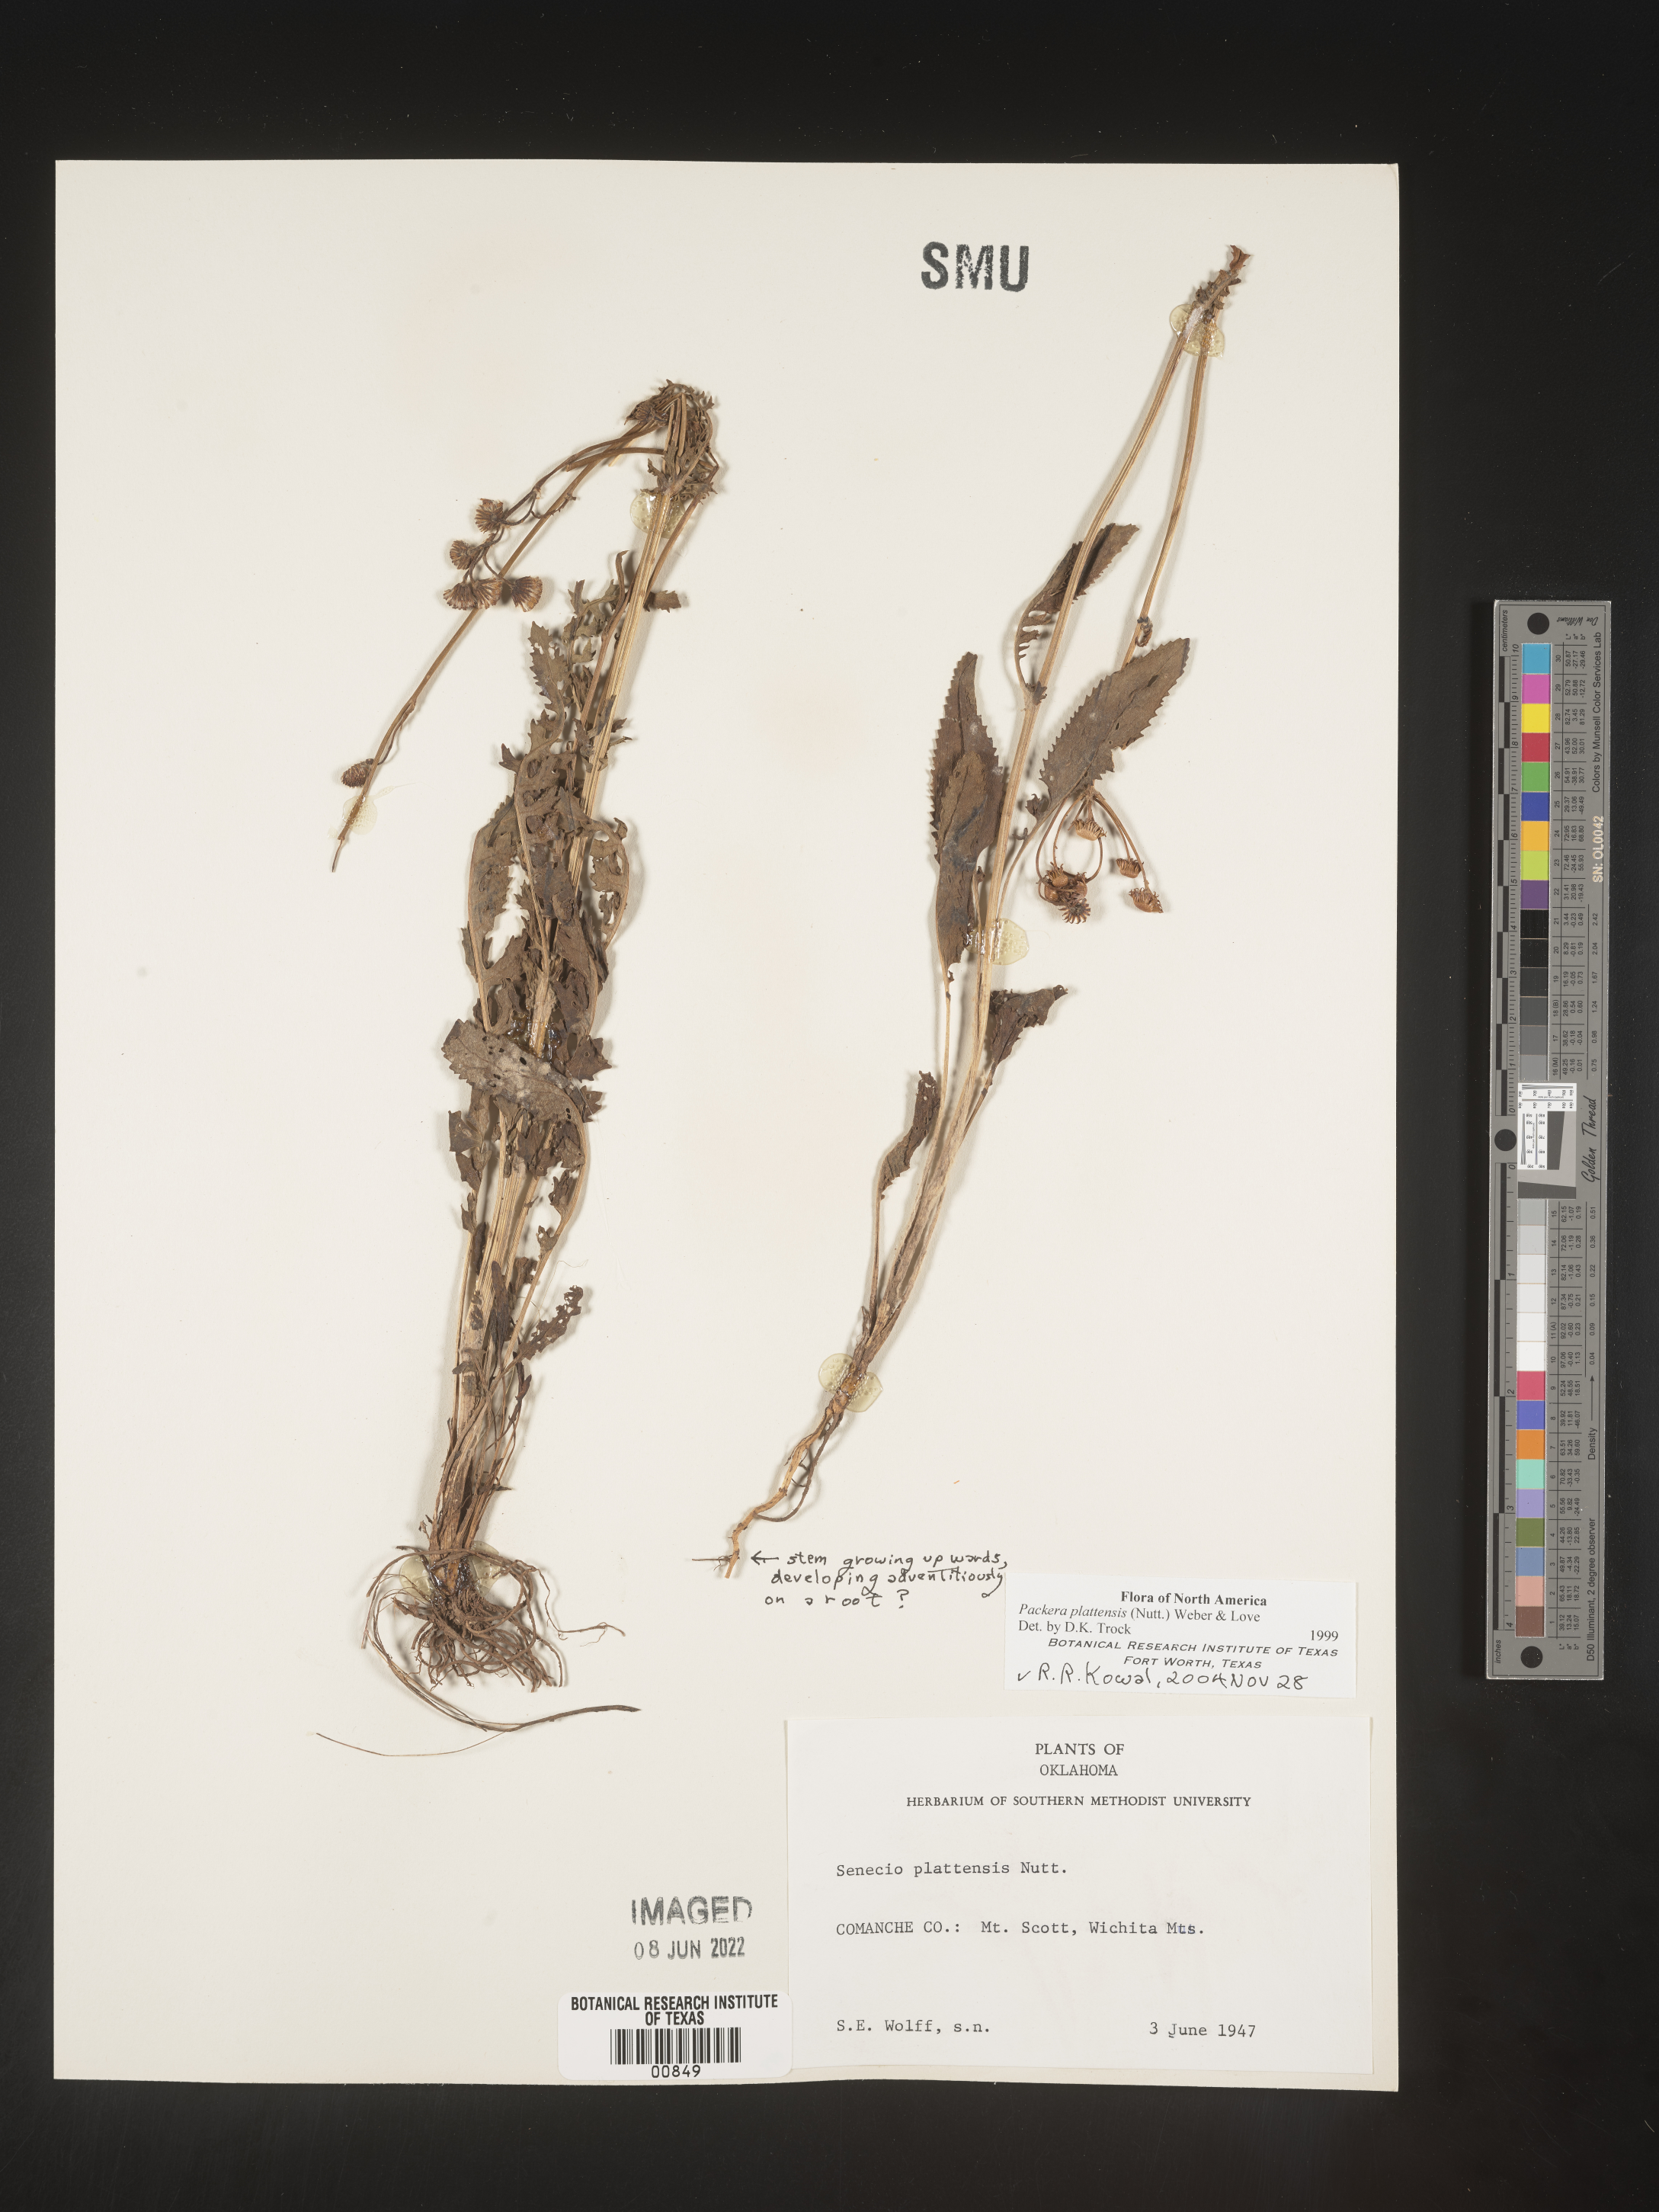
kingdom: Plantae
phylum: Tracheophyta
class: Magnoliopsida
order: Asterales
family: Asteraceae
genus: Packera
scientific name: Packera plattensis
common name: Prairie groundsel
